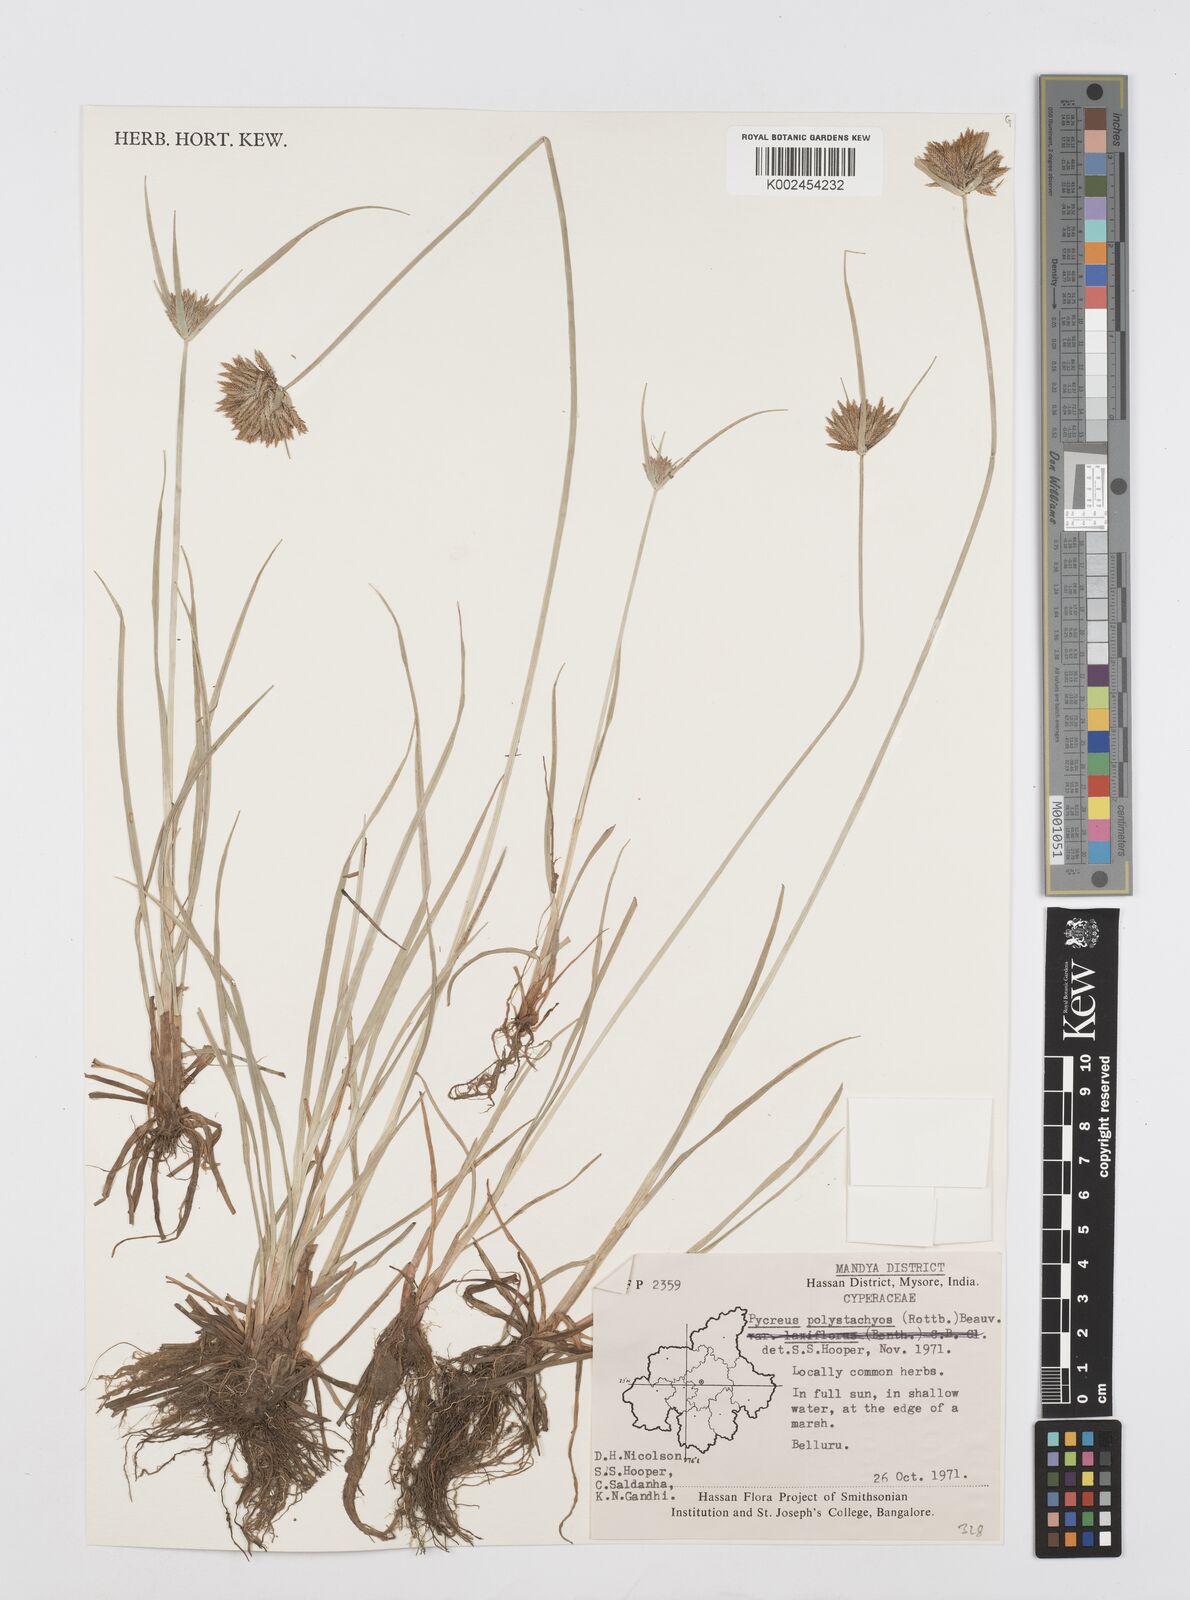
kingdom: Plantae
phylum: Tracheophyta
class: Liliopsida
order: Poales
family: Cyperaceae
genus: Cyperus
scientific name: Cyperus polystachyos
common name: Bunchy flat sedge
